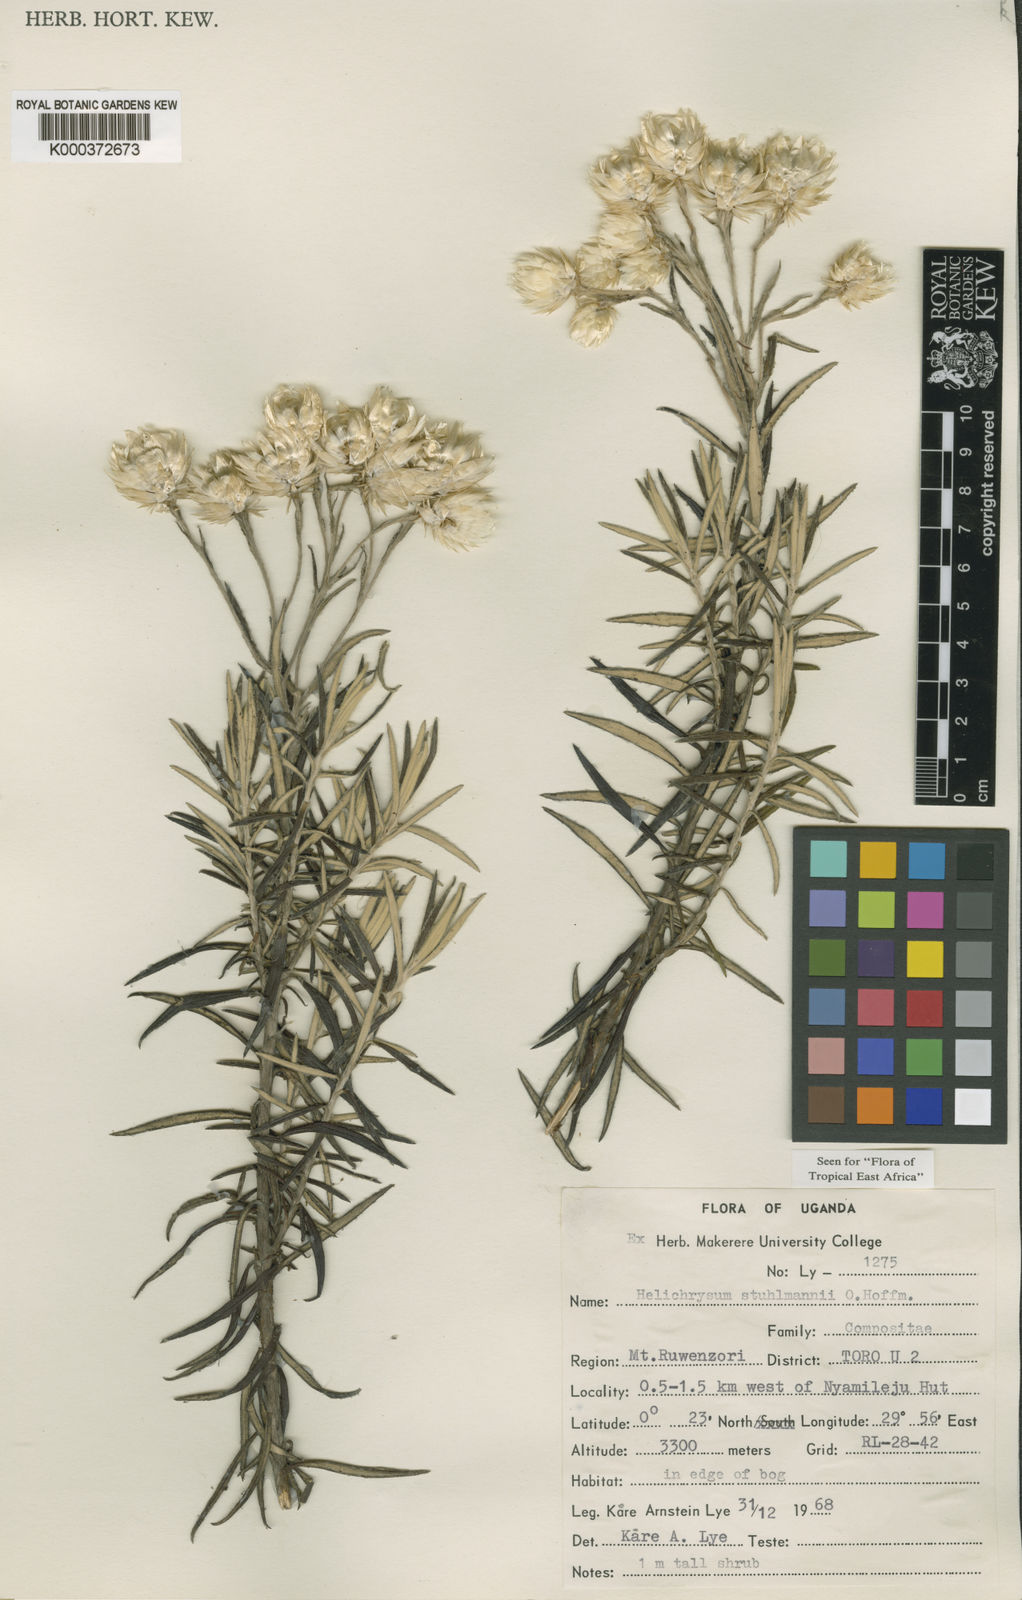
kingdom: Plantae
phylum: Tracheophyta
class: Magnoliopsida
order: Asterales
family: Asteraceae
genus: Helichrysum
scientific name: Helichrysum stuhlmannii
